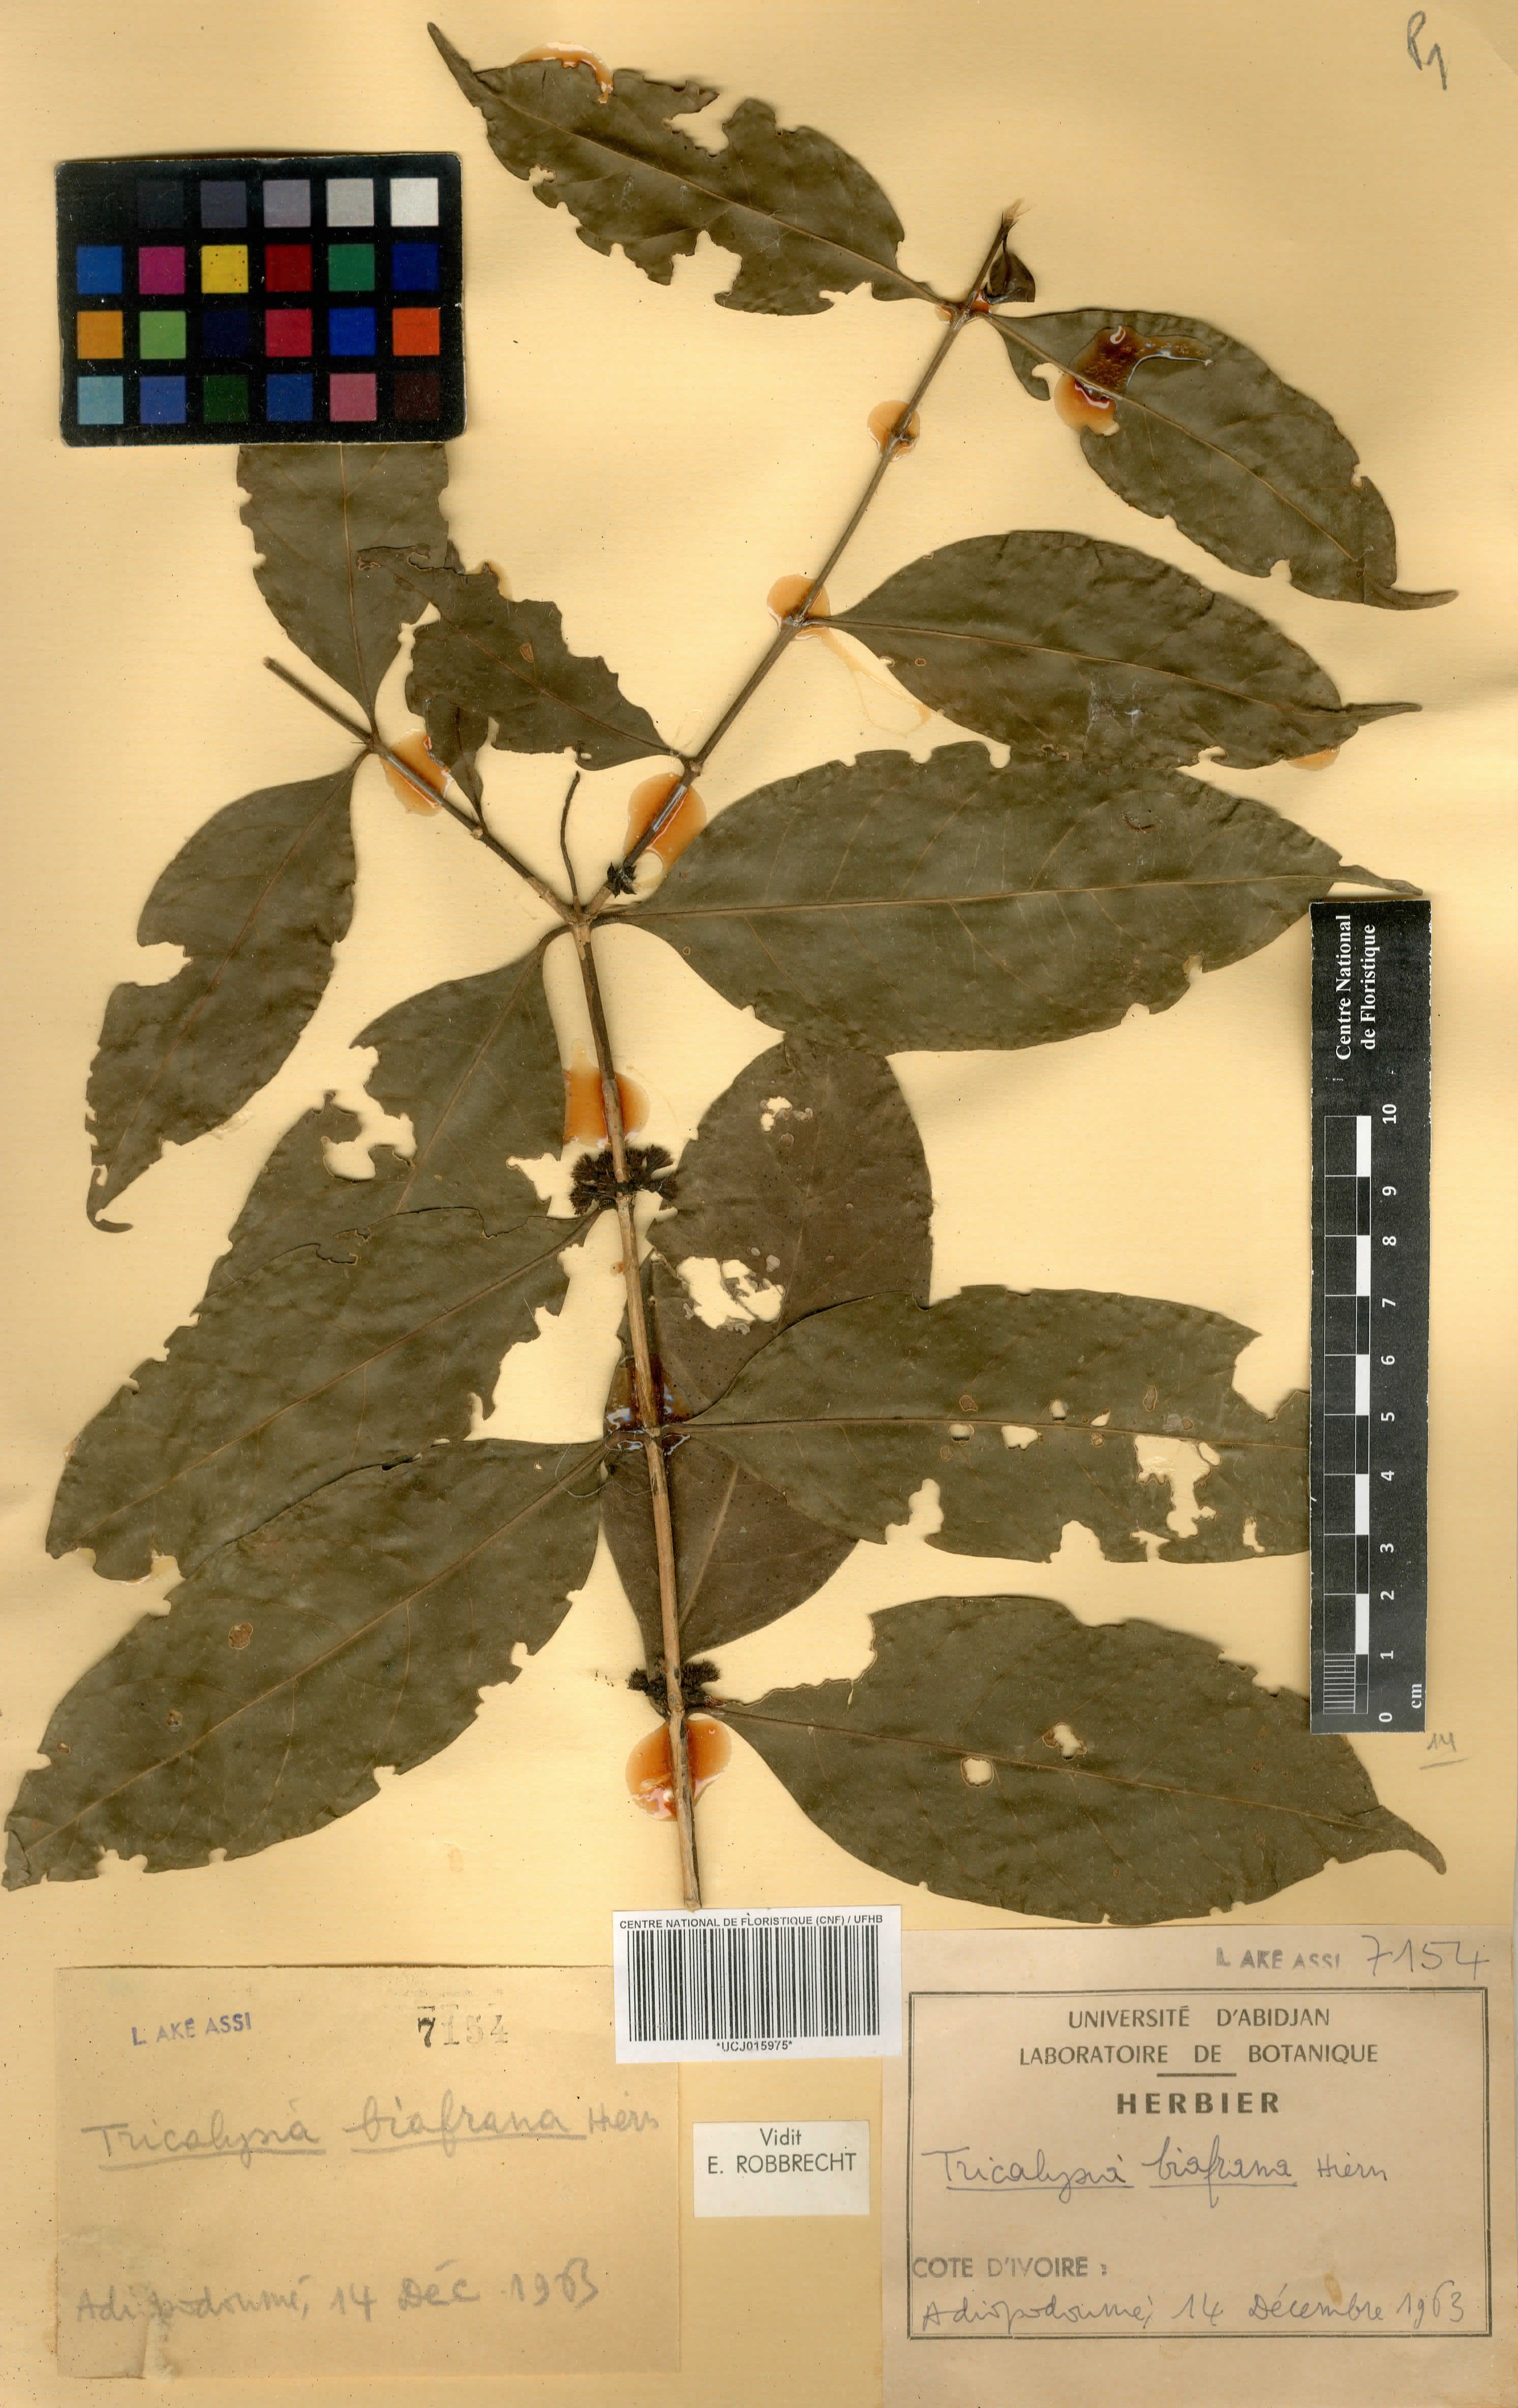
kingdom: Plantae
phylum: Tracheophyta
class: Magnoliopsida
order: Gentianales
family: Rubiaceae
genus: Tricalysia
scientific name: Tricalysia biafrana
